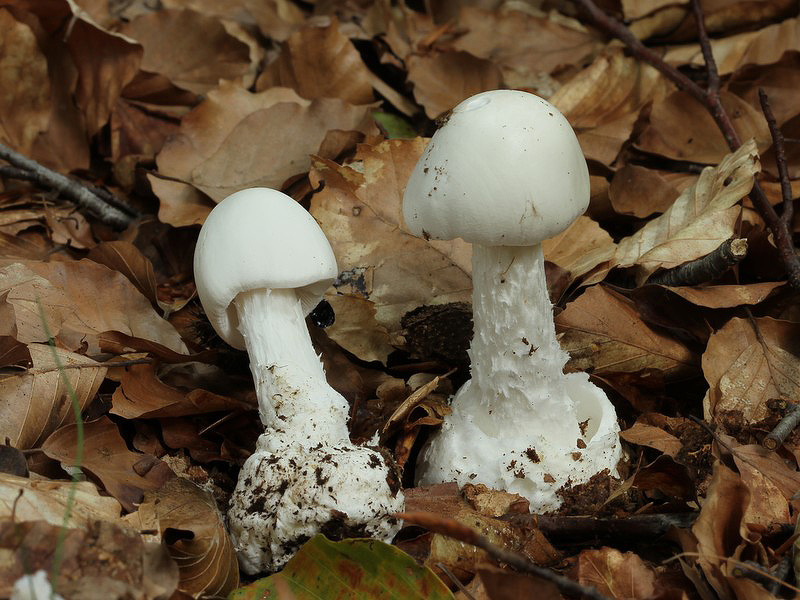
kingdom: Fungi
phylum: Basidiomycota
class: Agaricomycetes
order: Agaricales
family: Amanitaceae
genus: Amanita
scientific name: Amanita virosa
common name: snehvid fluesvamp
